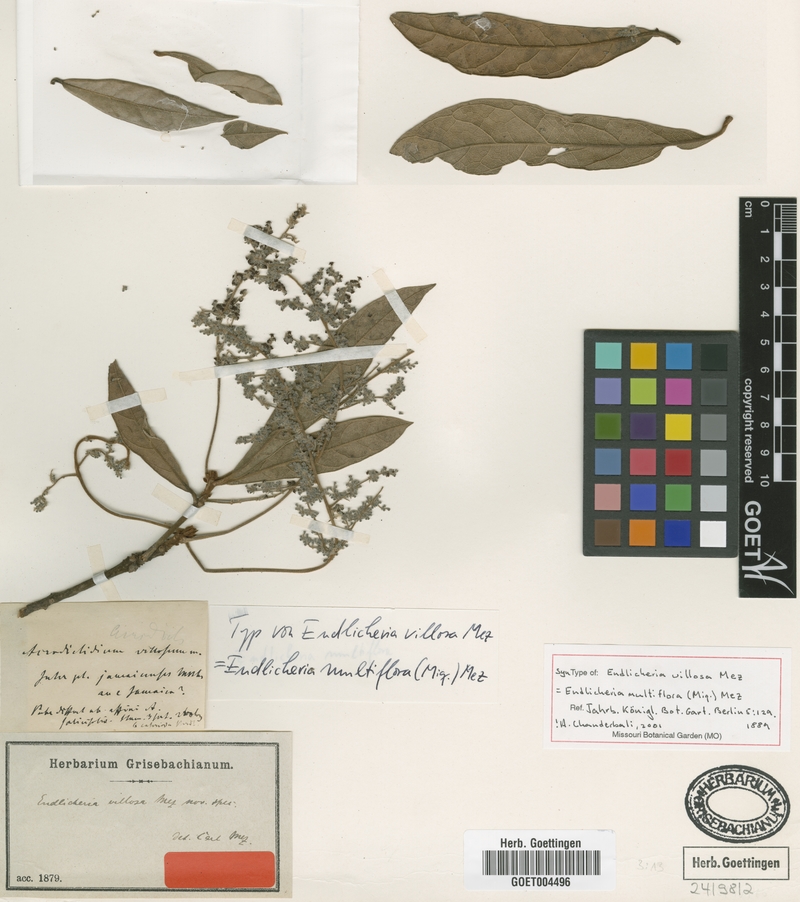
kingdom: Plantae
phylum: Tracheophyta
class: Magnoliopsida
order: Laurales
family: Lauraceae
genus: Endlicheria
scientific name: Endlicheria multiflora
